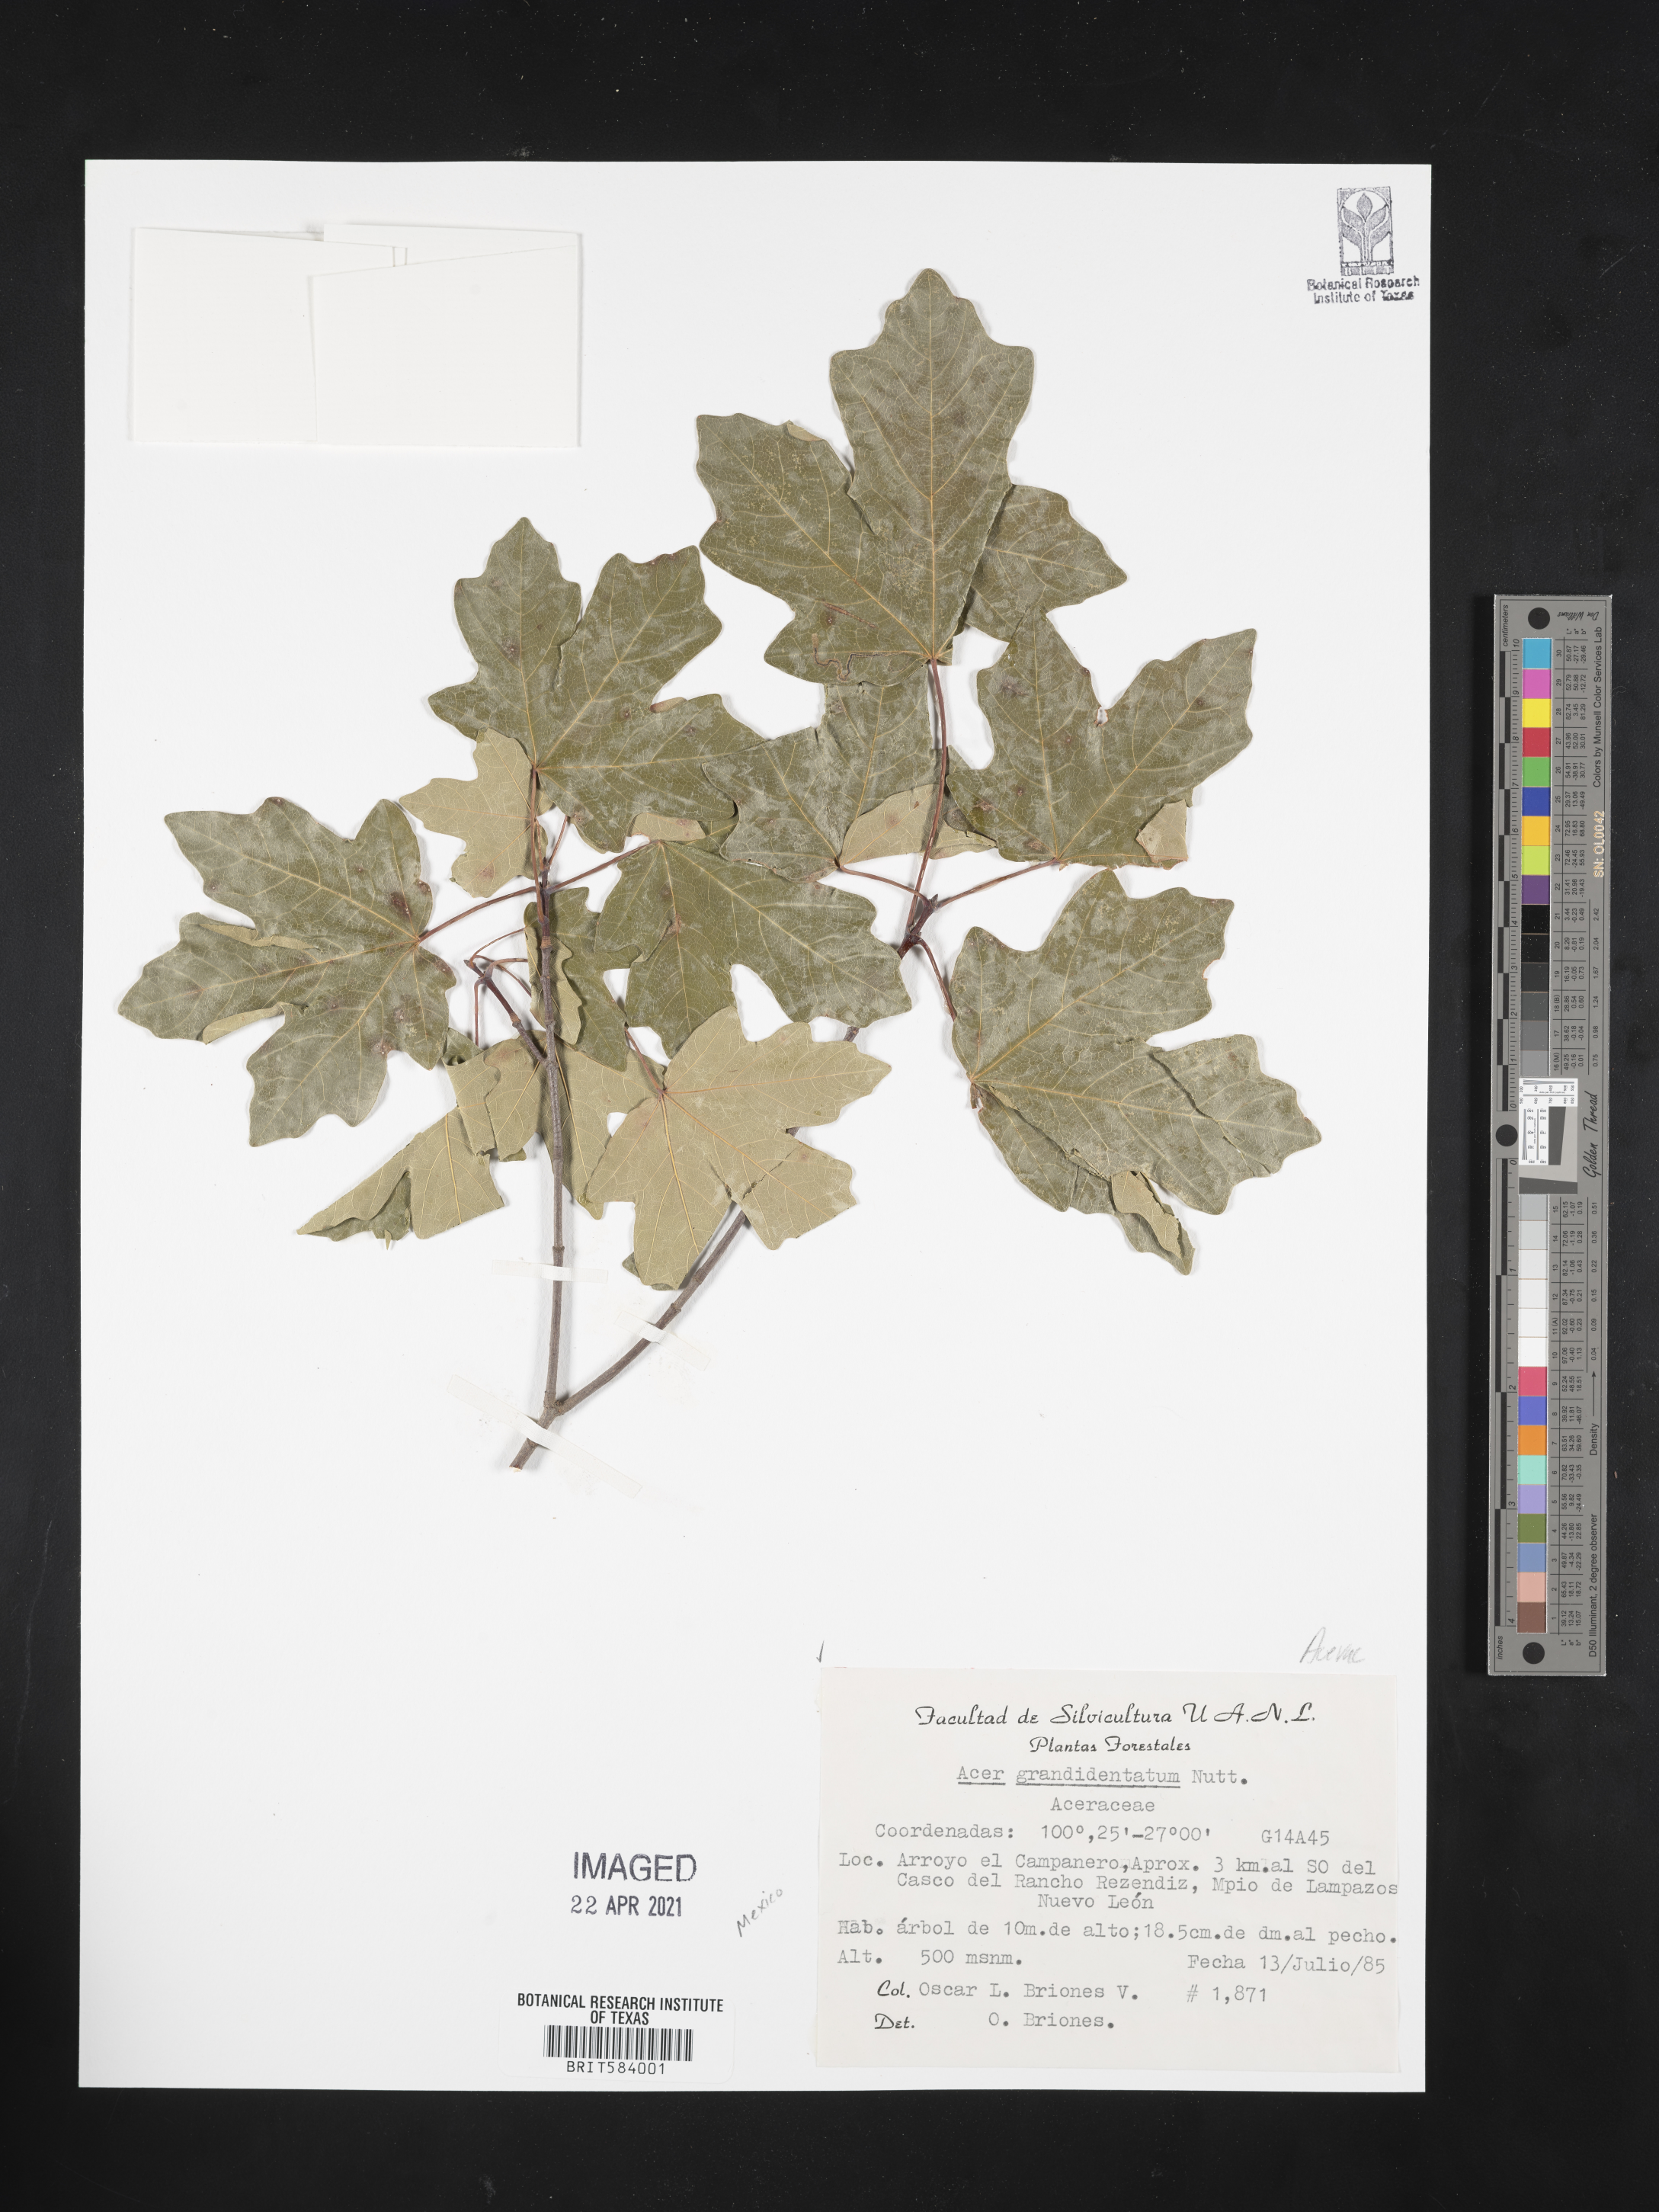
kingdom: Plantae
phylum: Tracheophyta
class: Magnoliopsida
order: Sapindales
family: Sapindaceae
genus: Acer
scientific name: Acer grandidentatum
